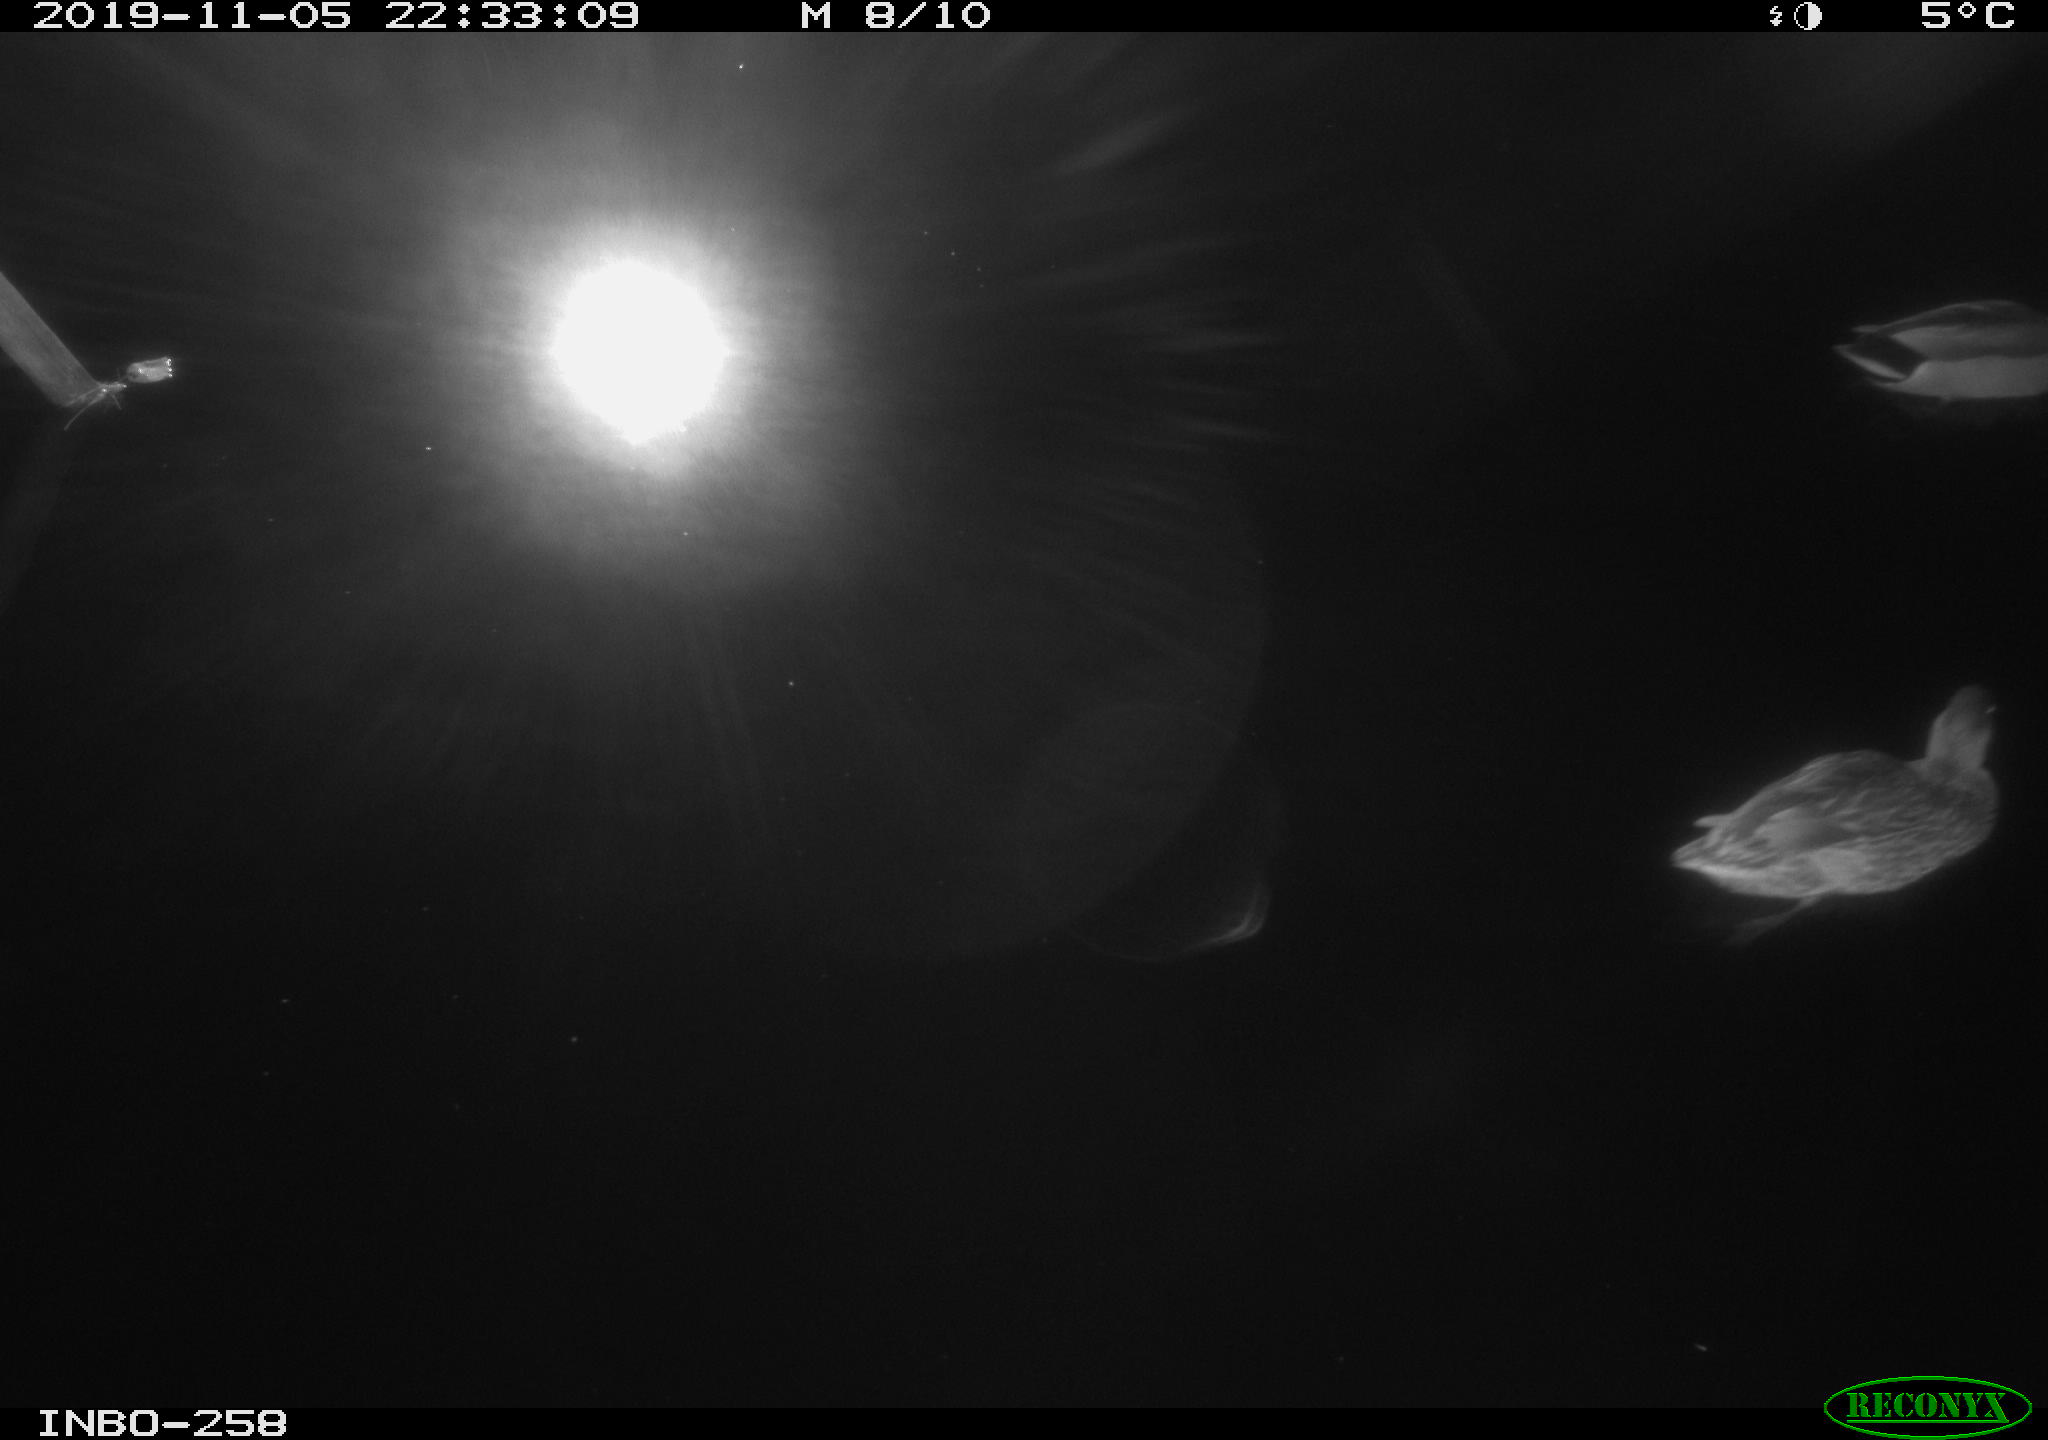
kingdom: Animalia
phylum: Chordata
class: Aves
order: Anseriformes
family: Anatidae
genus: Anas
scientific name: Anas platyrhynchos
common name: Mallard
